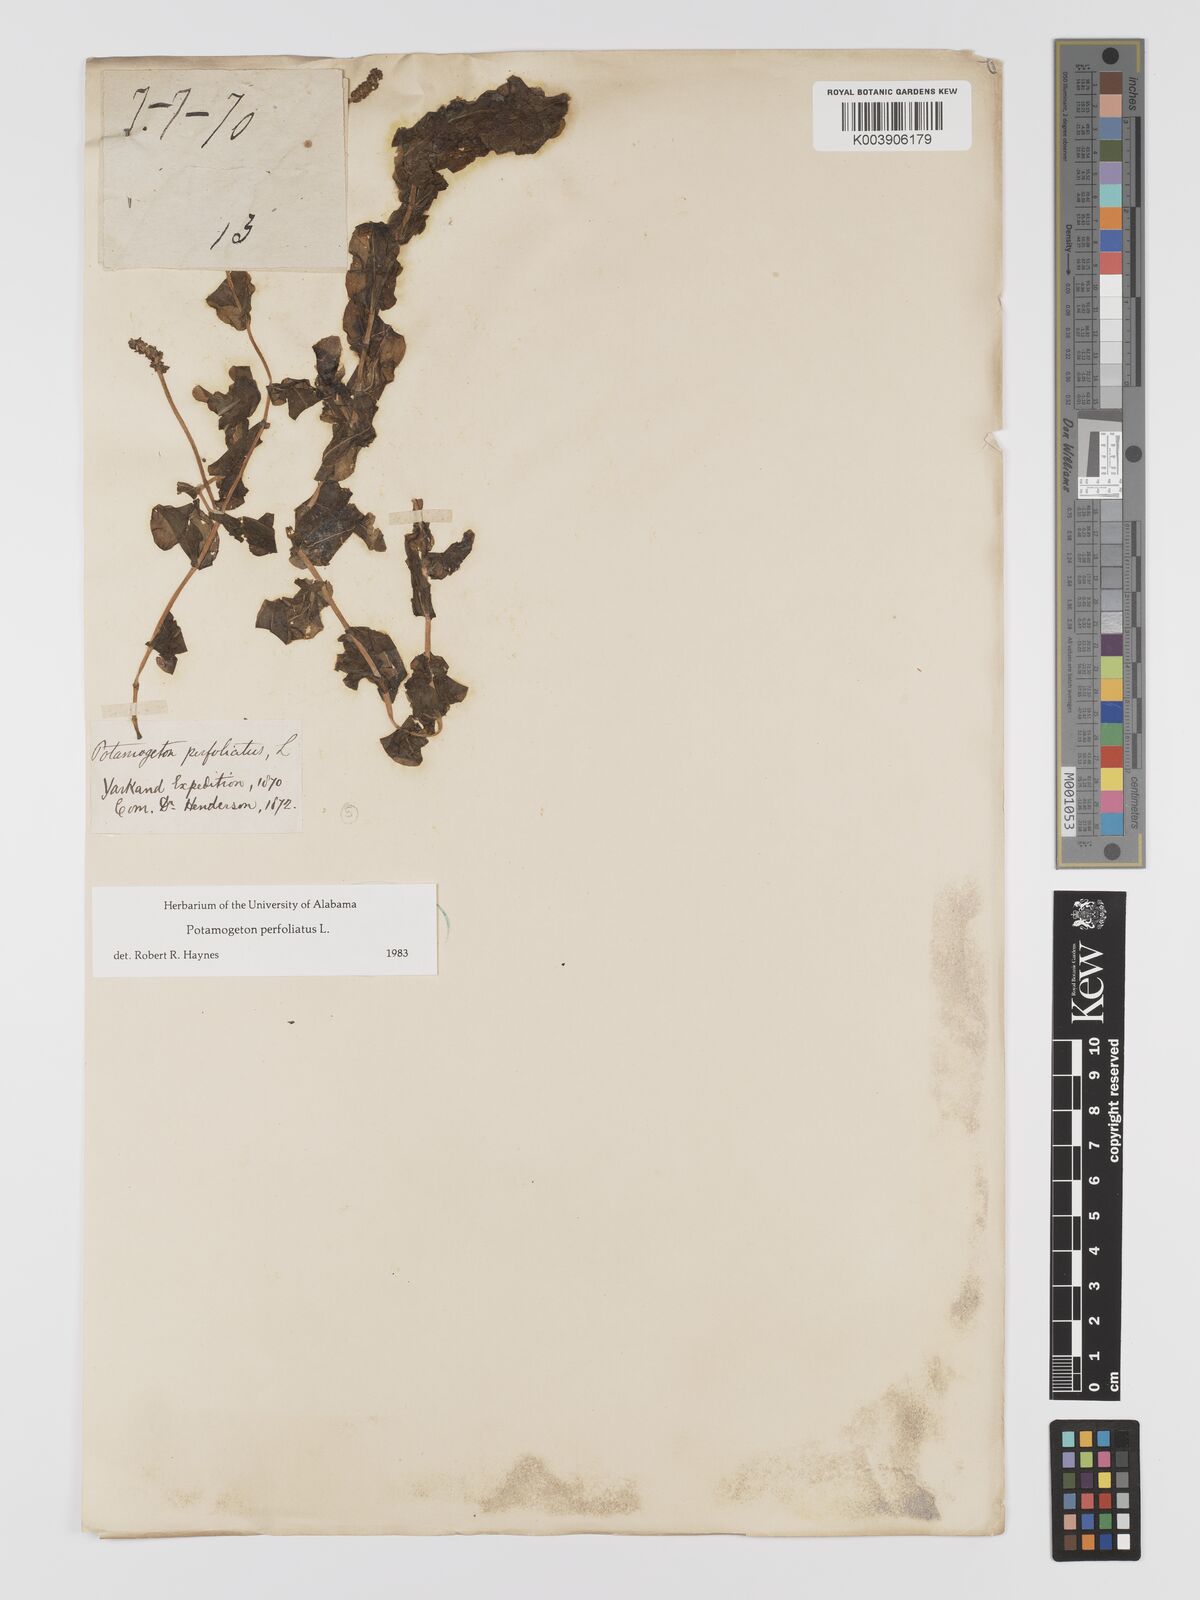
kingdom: Plantae
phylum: Tracheophyta
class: Liliopsida
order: Alismatales
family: Potamogetonaceae
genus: Potamogeton
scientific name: Potamogeton perfoliatus
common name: Perfoliate pondweed
